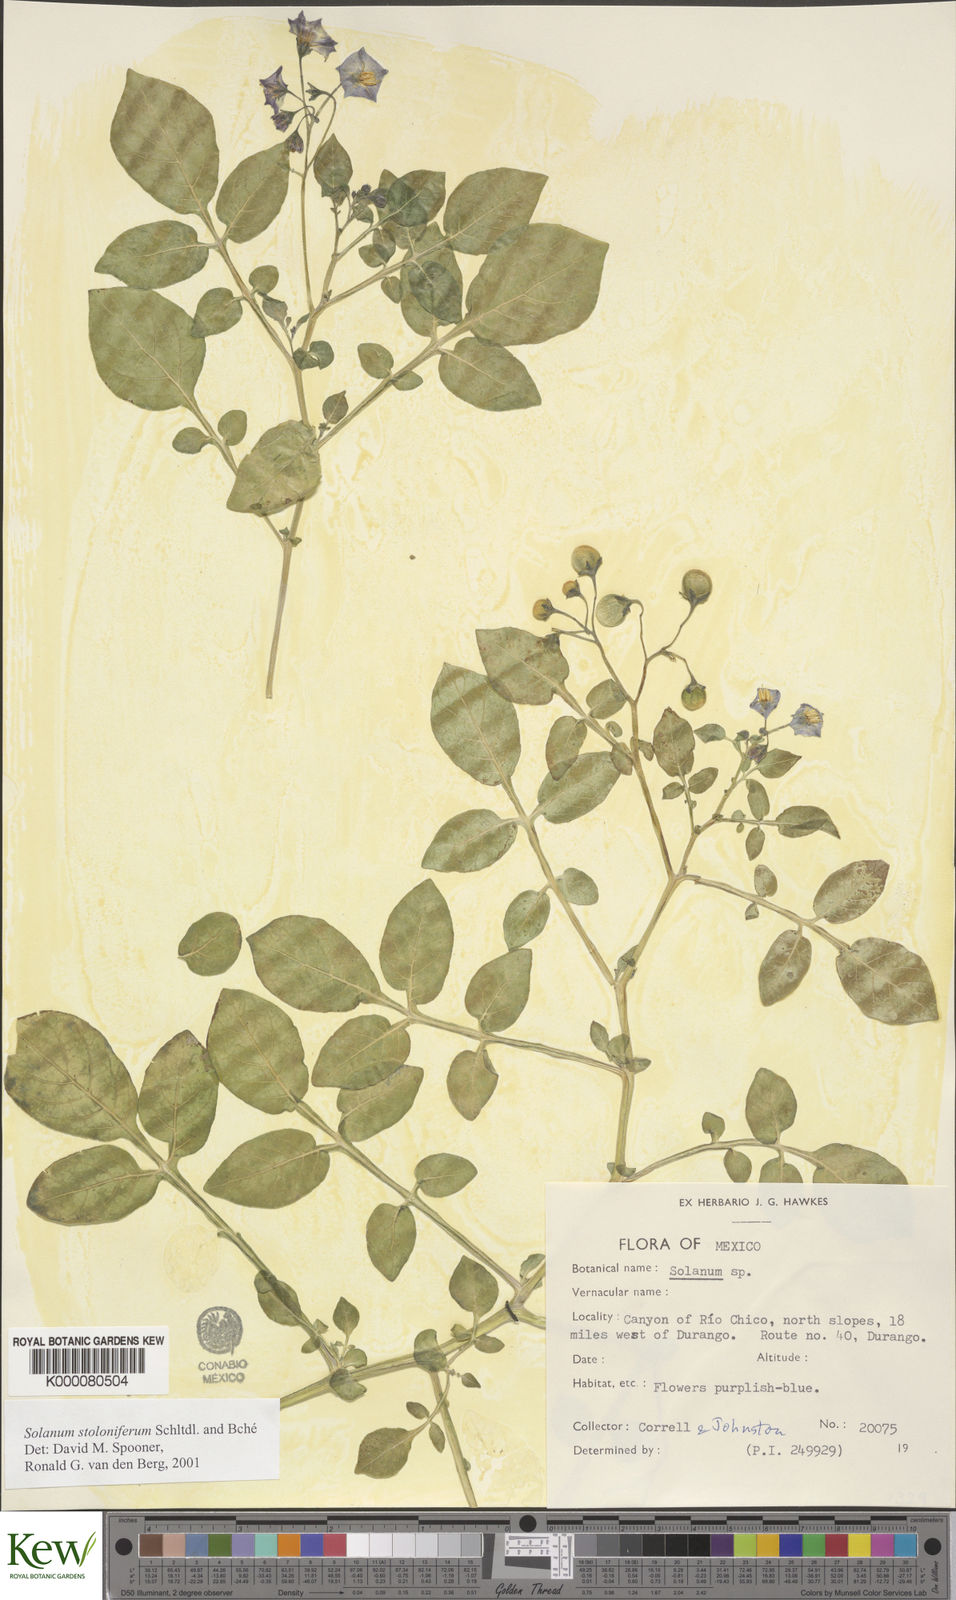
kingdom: Plantae
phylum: Tracheophyta
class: Magnoliopsida
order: Solanales
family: Solanaceae
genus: Solanum
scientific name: Solanum stoloniferum
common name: Fendler's nighshade
